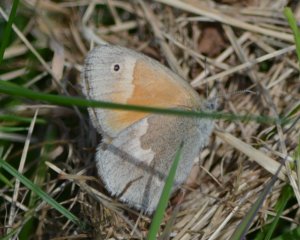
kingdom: Animalia
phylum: Arthropoda
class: Insecta
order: Lepidoptera
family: Nymphalidae
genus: Coenonympha
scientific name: Coenonympha tullia
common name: Large Heath
